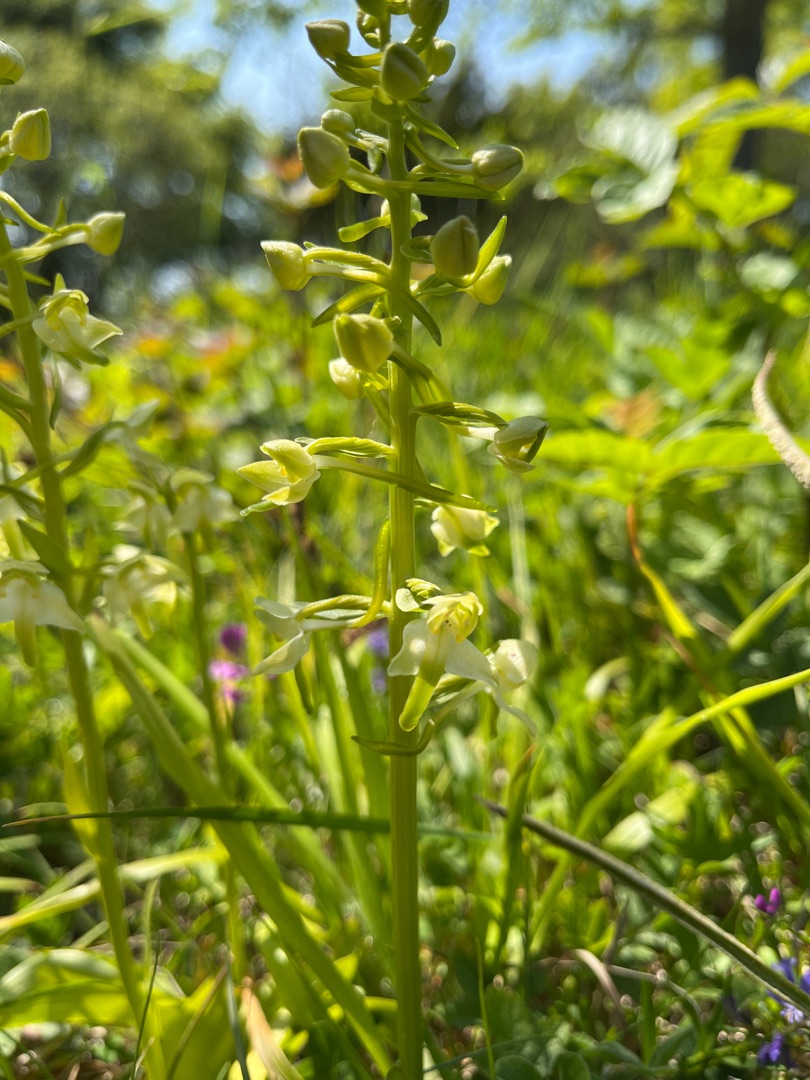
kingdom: Plantae
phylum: Tracheophyta
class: Liliopsida
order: Asparagales
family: Orchidaceae
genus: Platanthera
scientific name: Platanthera chlorantha
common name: Skov-gøgelilje
